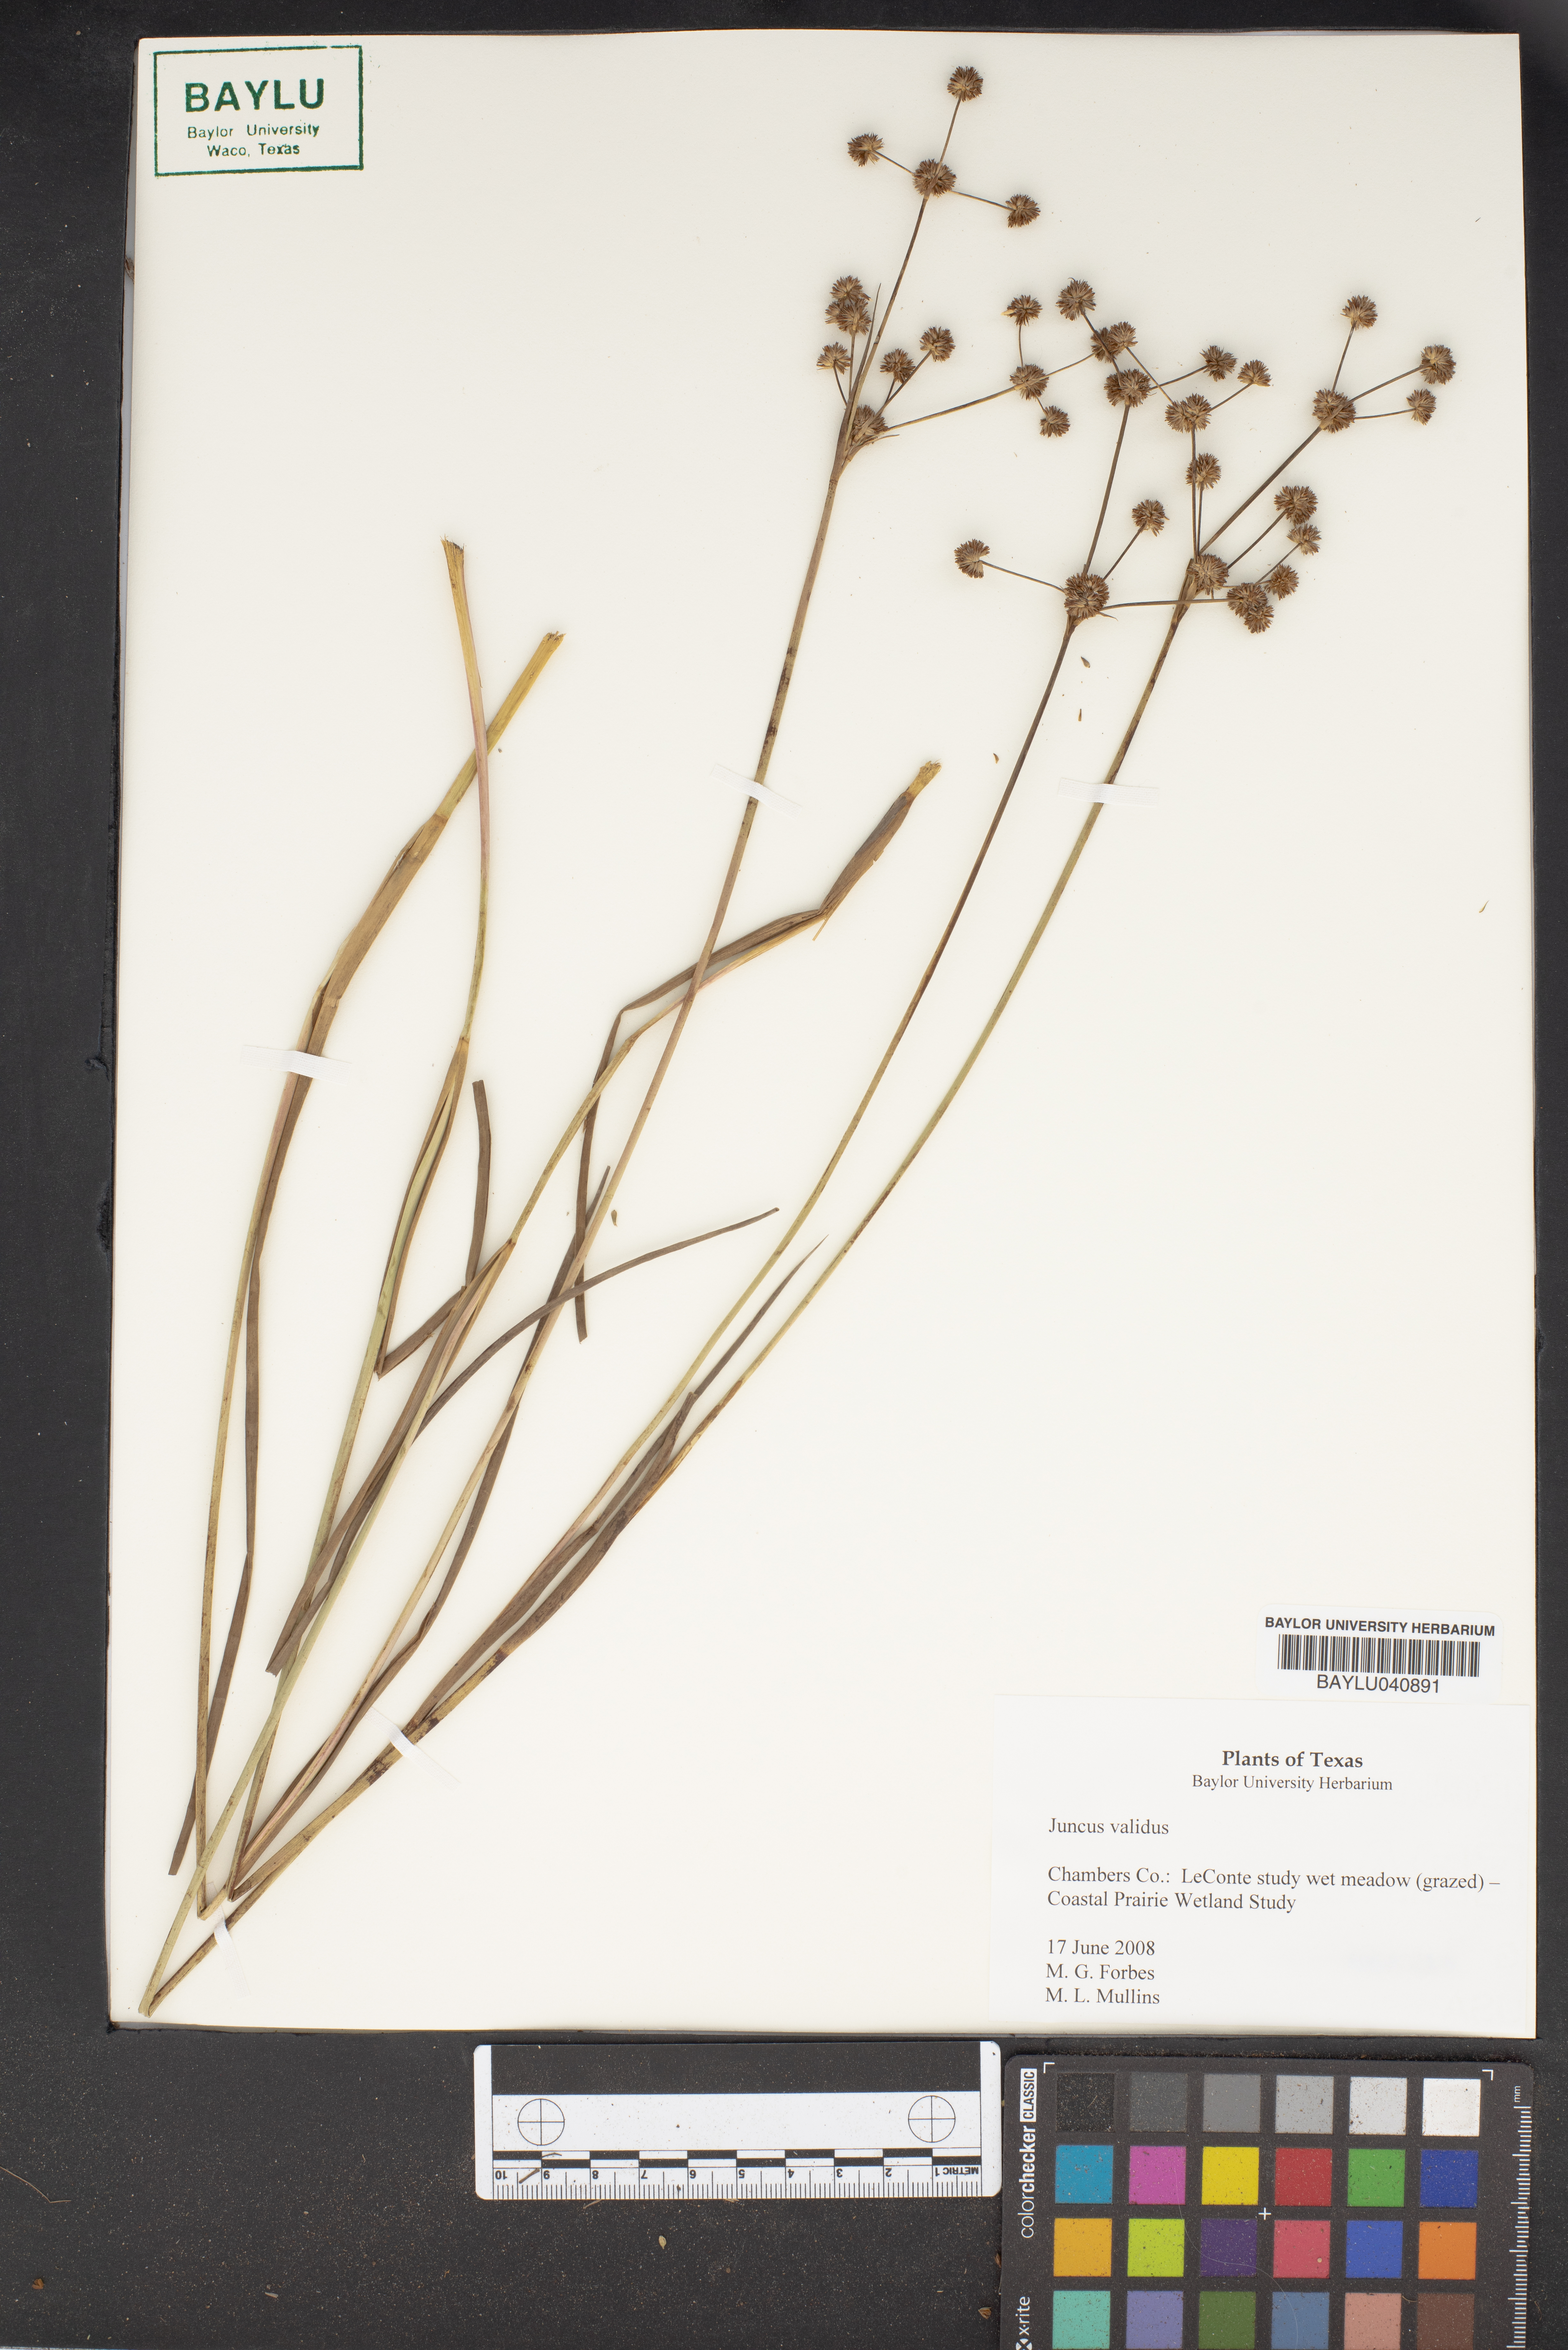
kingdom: Plantae
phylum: Tracheophyta
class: Liliopsida
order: Poales
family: Juncaceae
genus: Juncus
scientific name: Juncus validus
